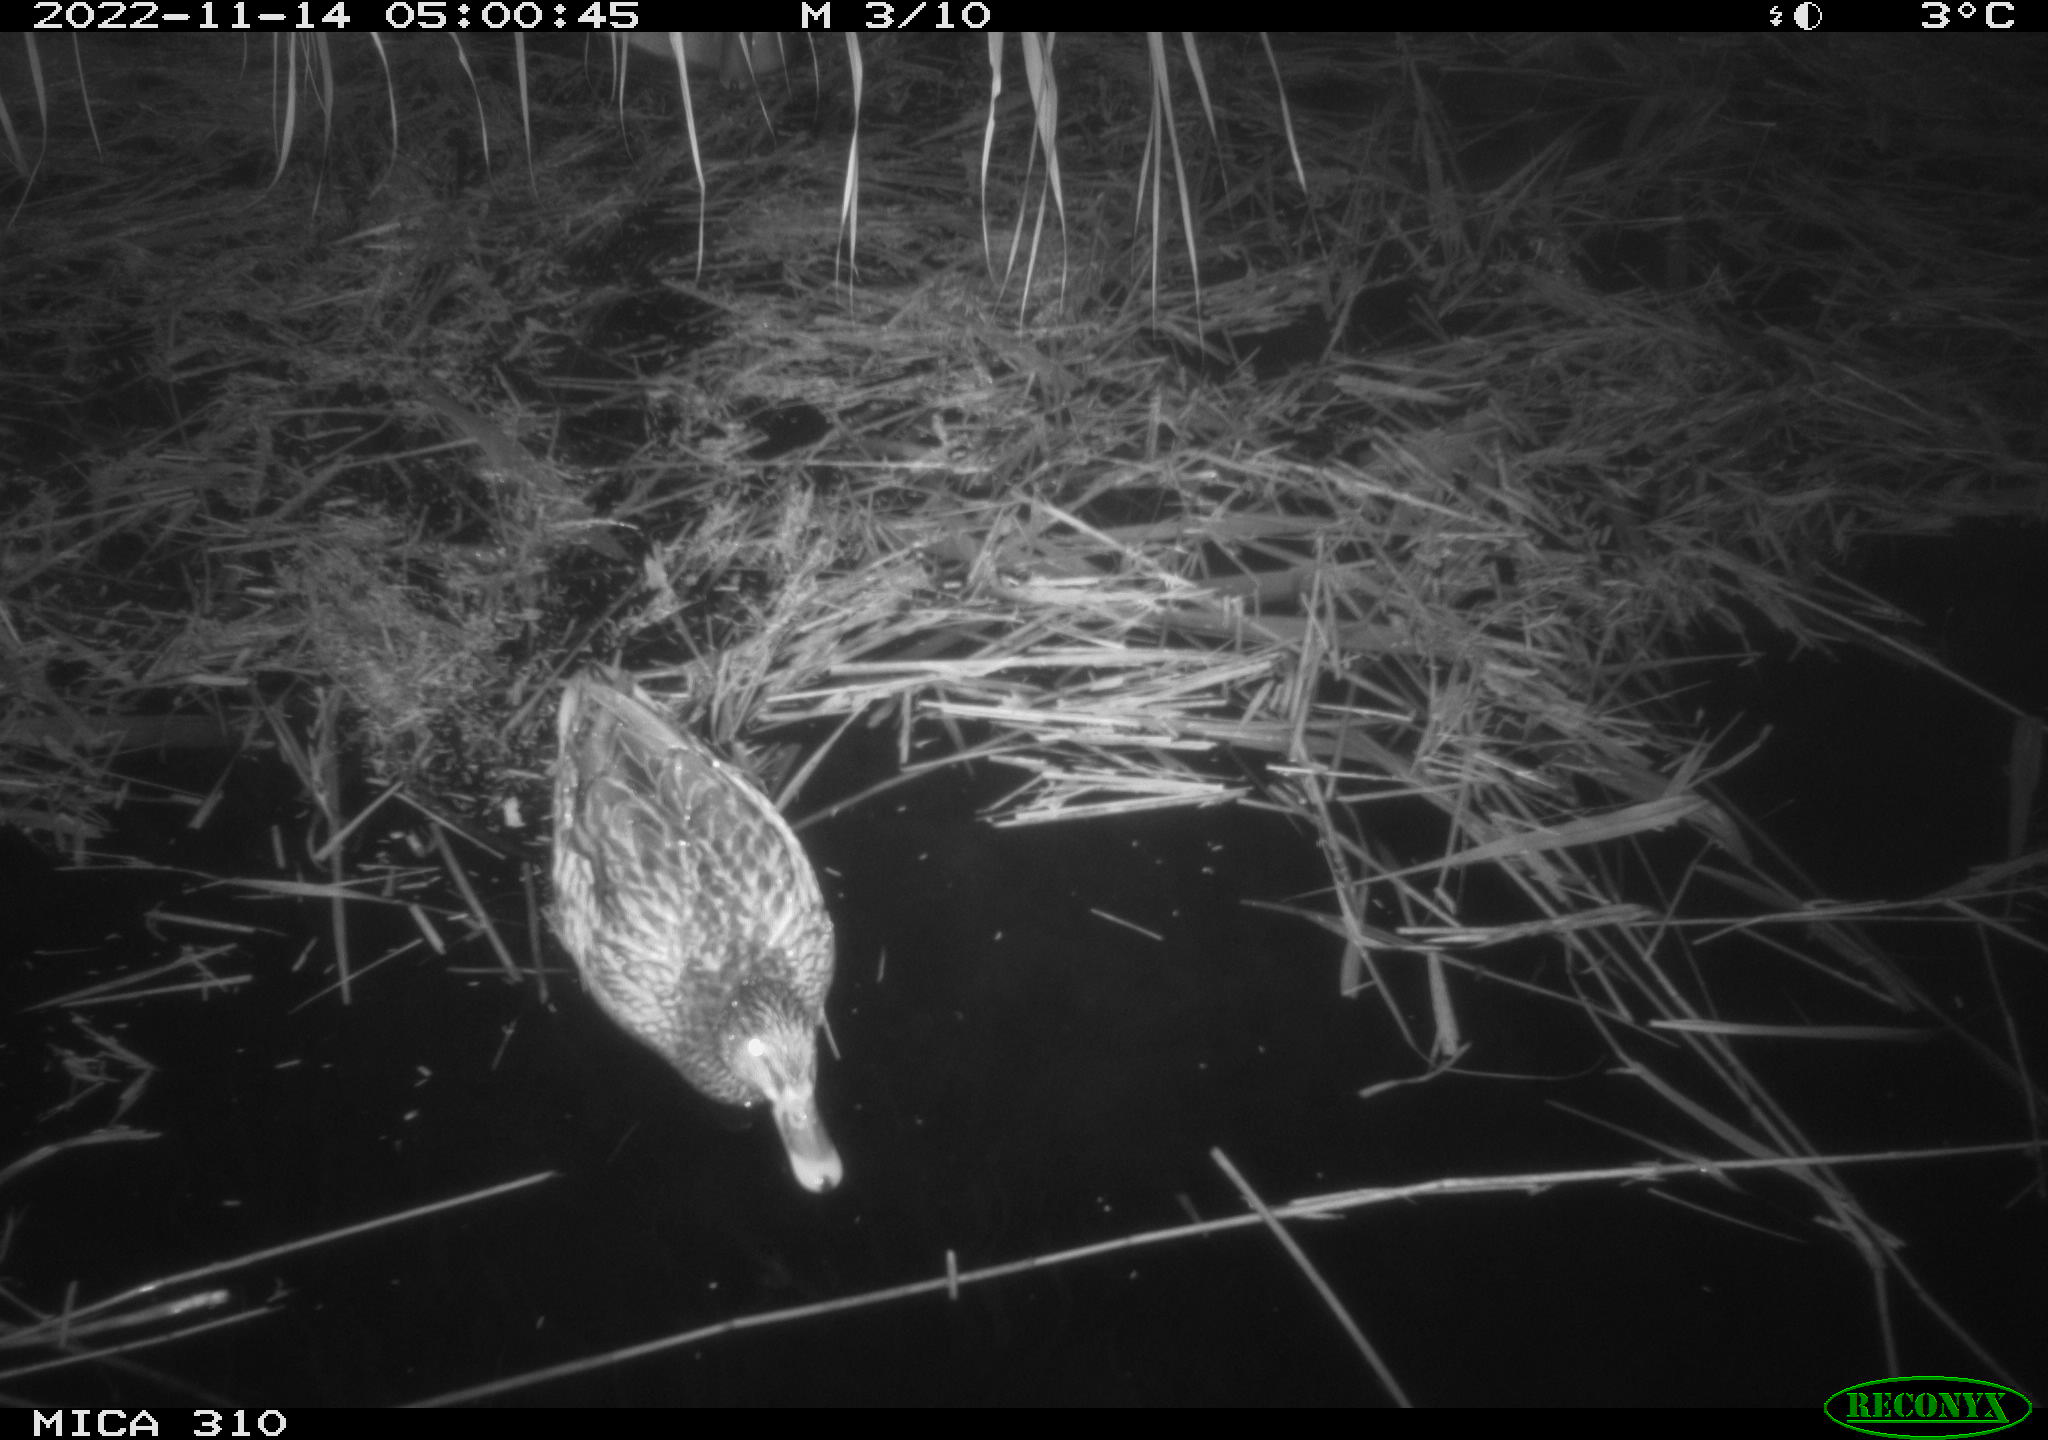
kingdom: Animalia
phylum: Chordata
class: Mammalia
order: Rodentia
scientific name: Rodentia
